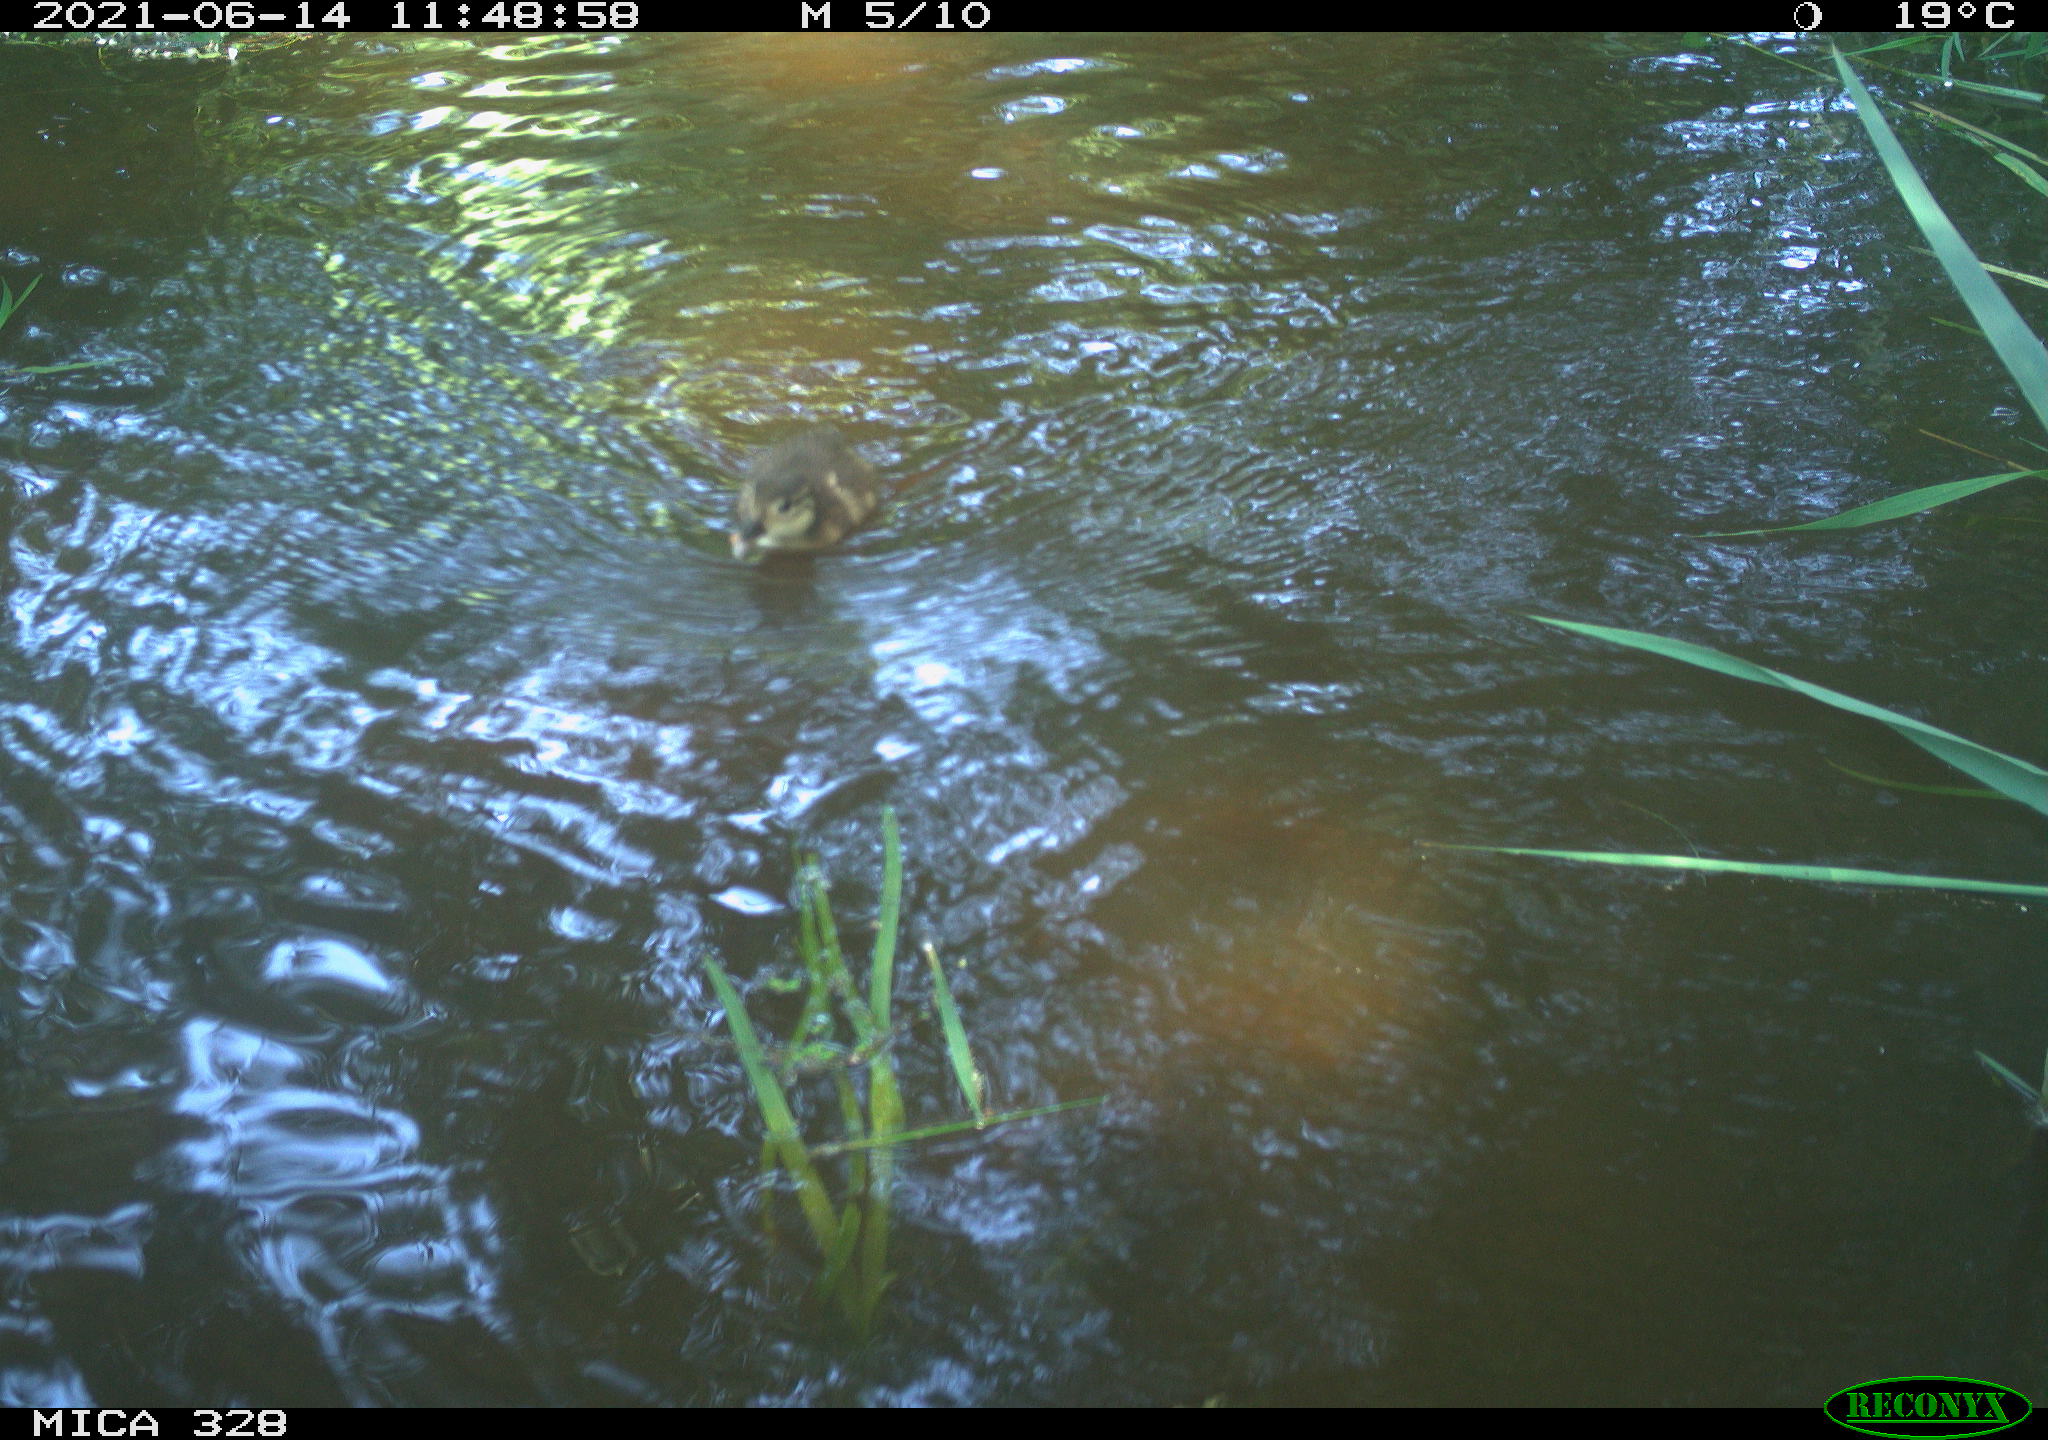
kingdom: Animalia
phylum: Chordata
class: Aves
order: Anseriformes
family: Anatidae
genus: Aix
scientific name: Aix galericulata
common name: Mandarin duck
